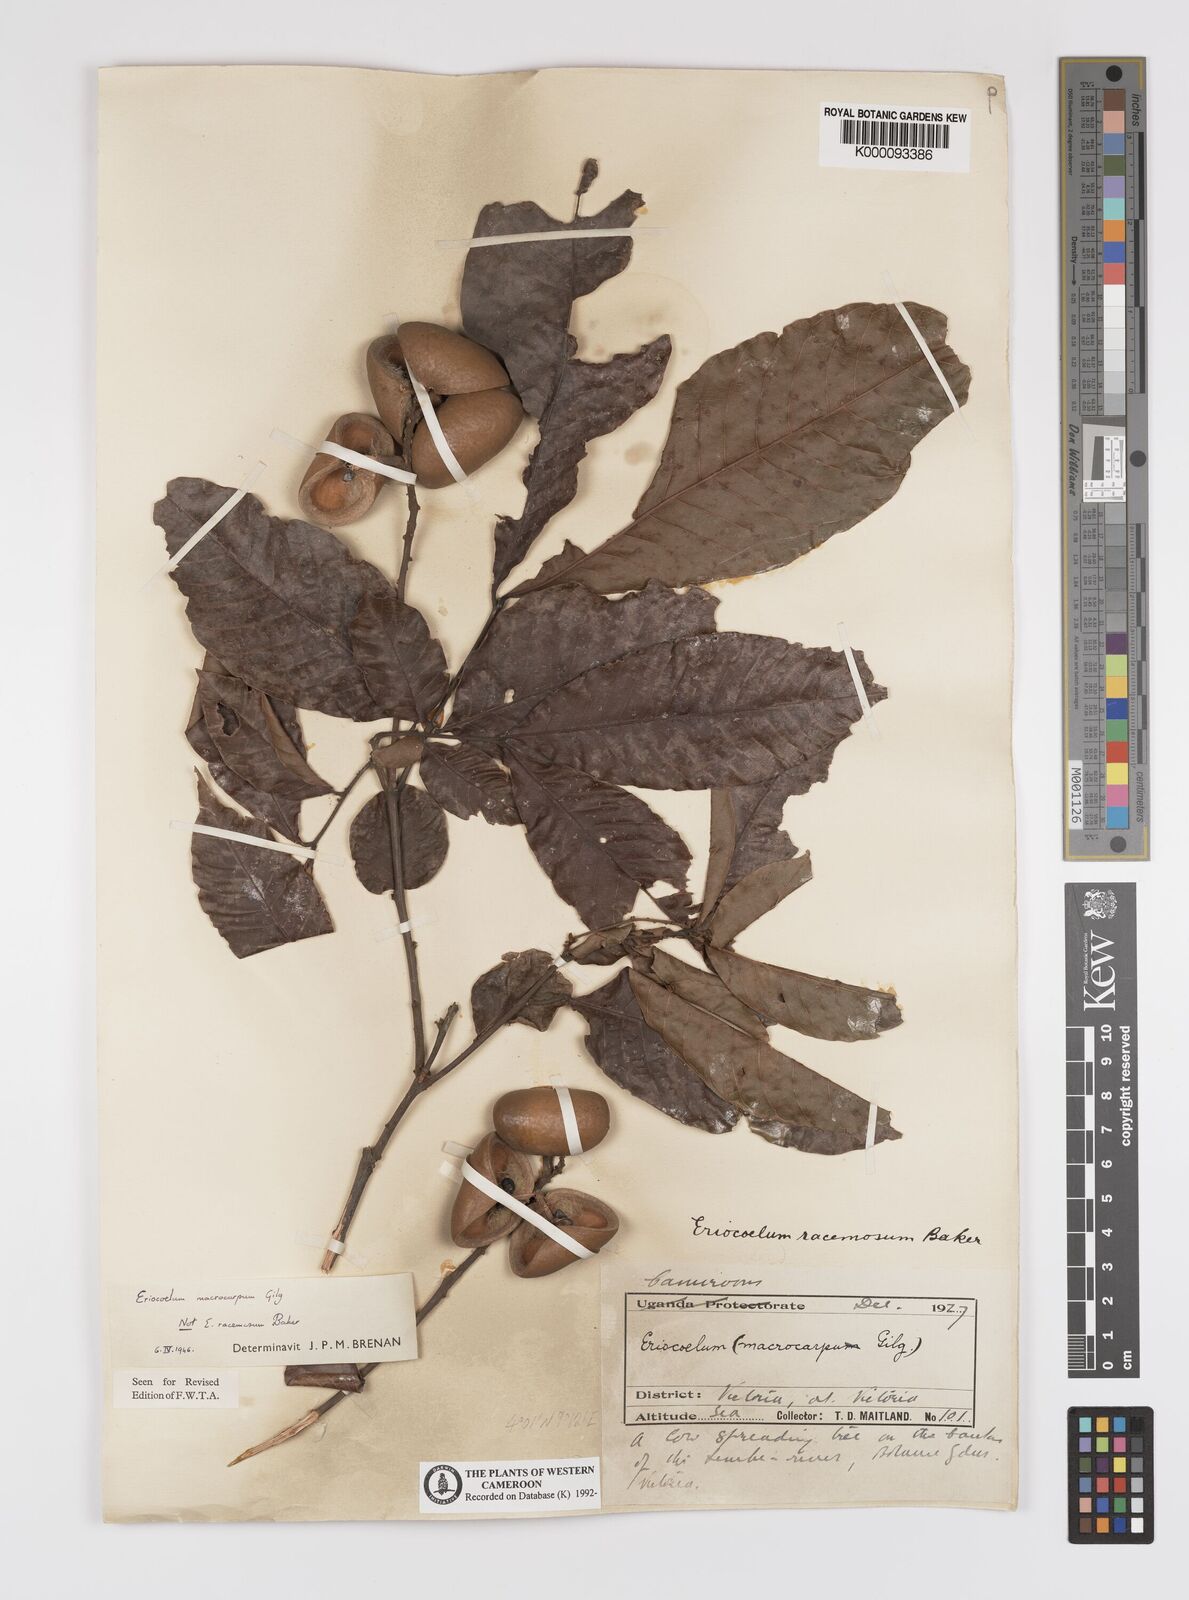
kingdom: Plantae
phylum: Tracheophyta
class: Magnoliopsida
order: Sapindales
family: Sapindaceae
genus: Eriocoelum
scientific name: Eriocoelum
